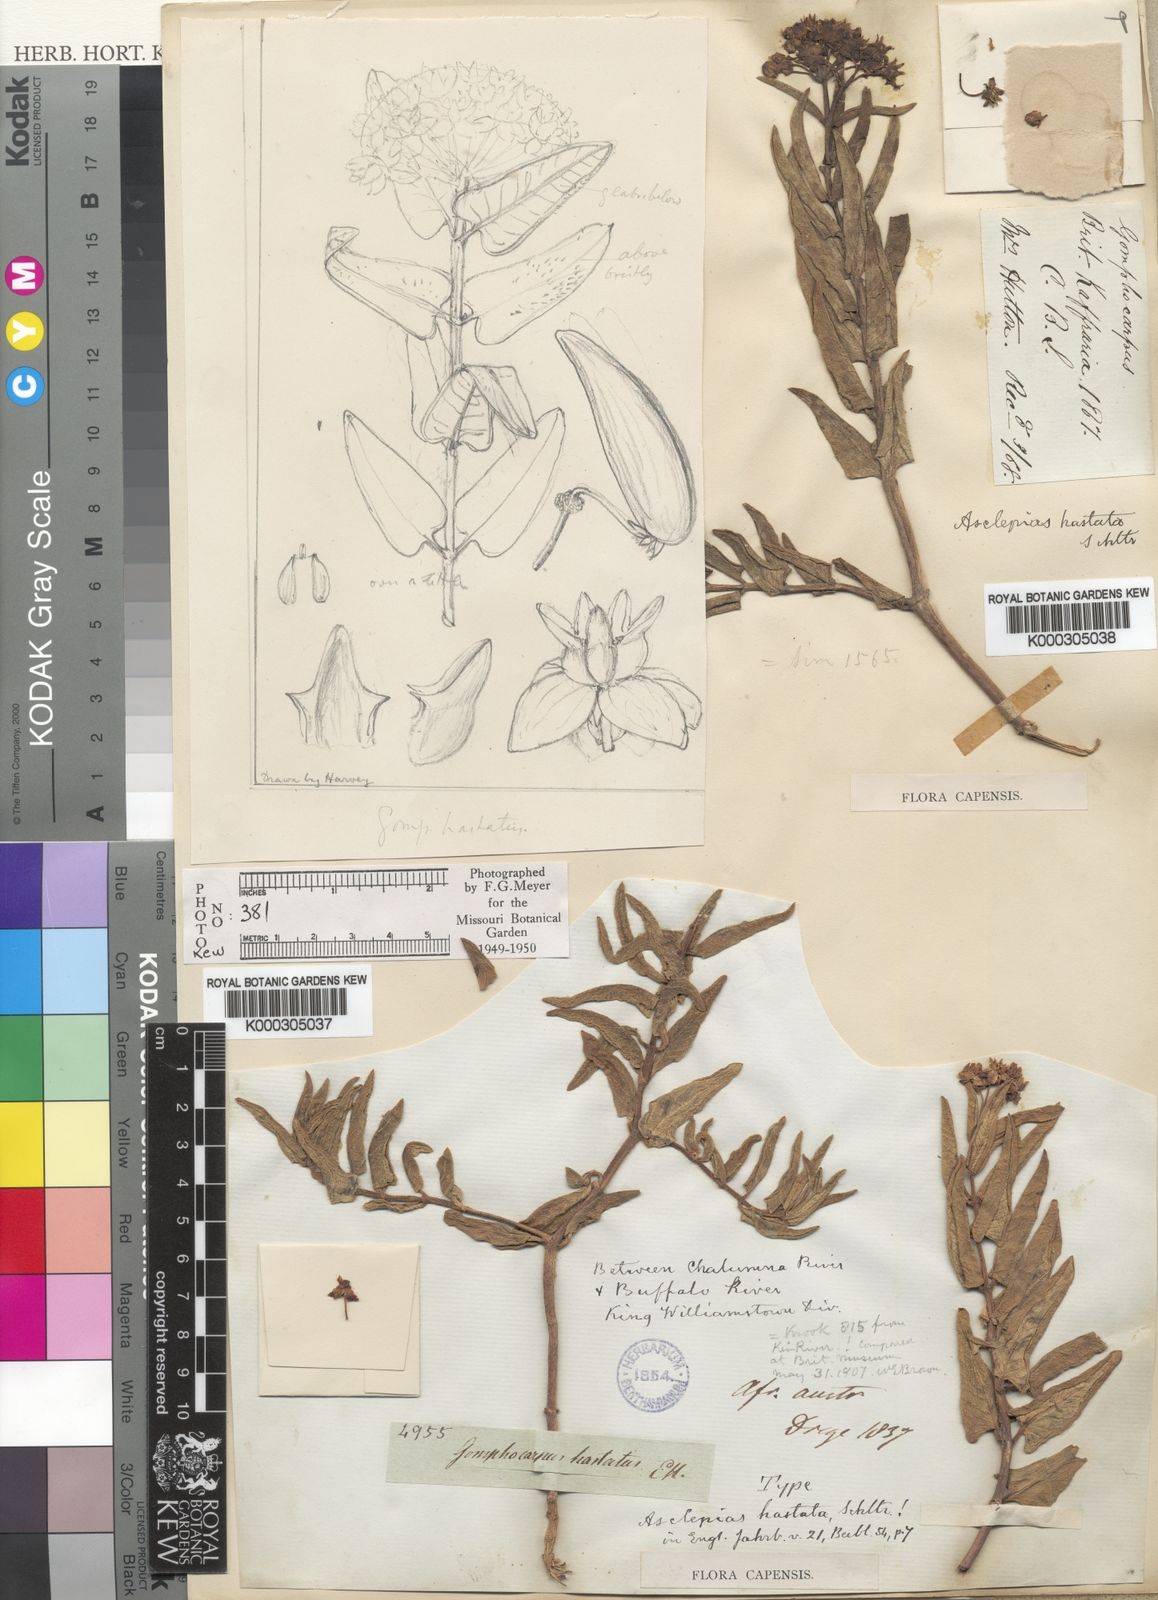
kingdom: Plantae
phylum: Tracheophyta
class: Magnoliopsida
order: Gentianales
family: Apocynaceae
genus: Asclepias
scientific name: Asclepias flanaganii
